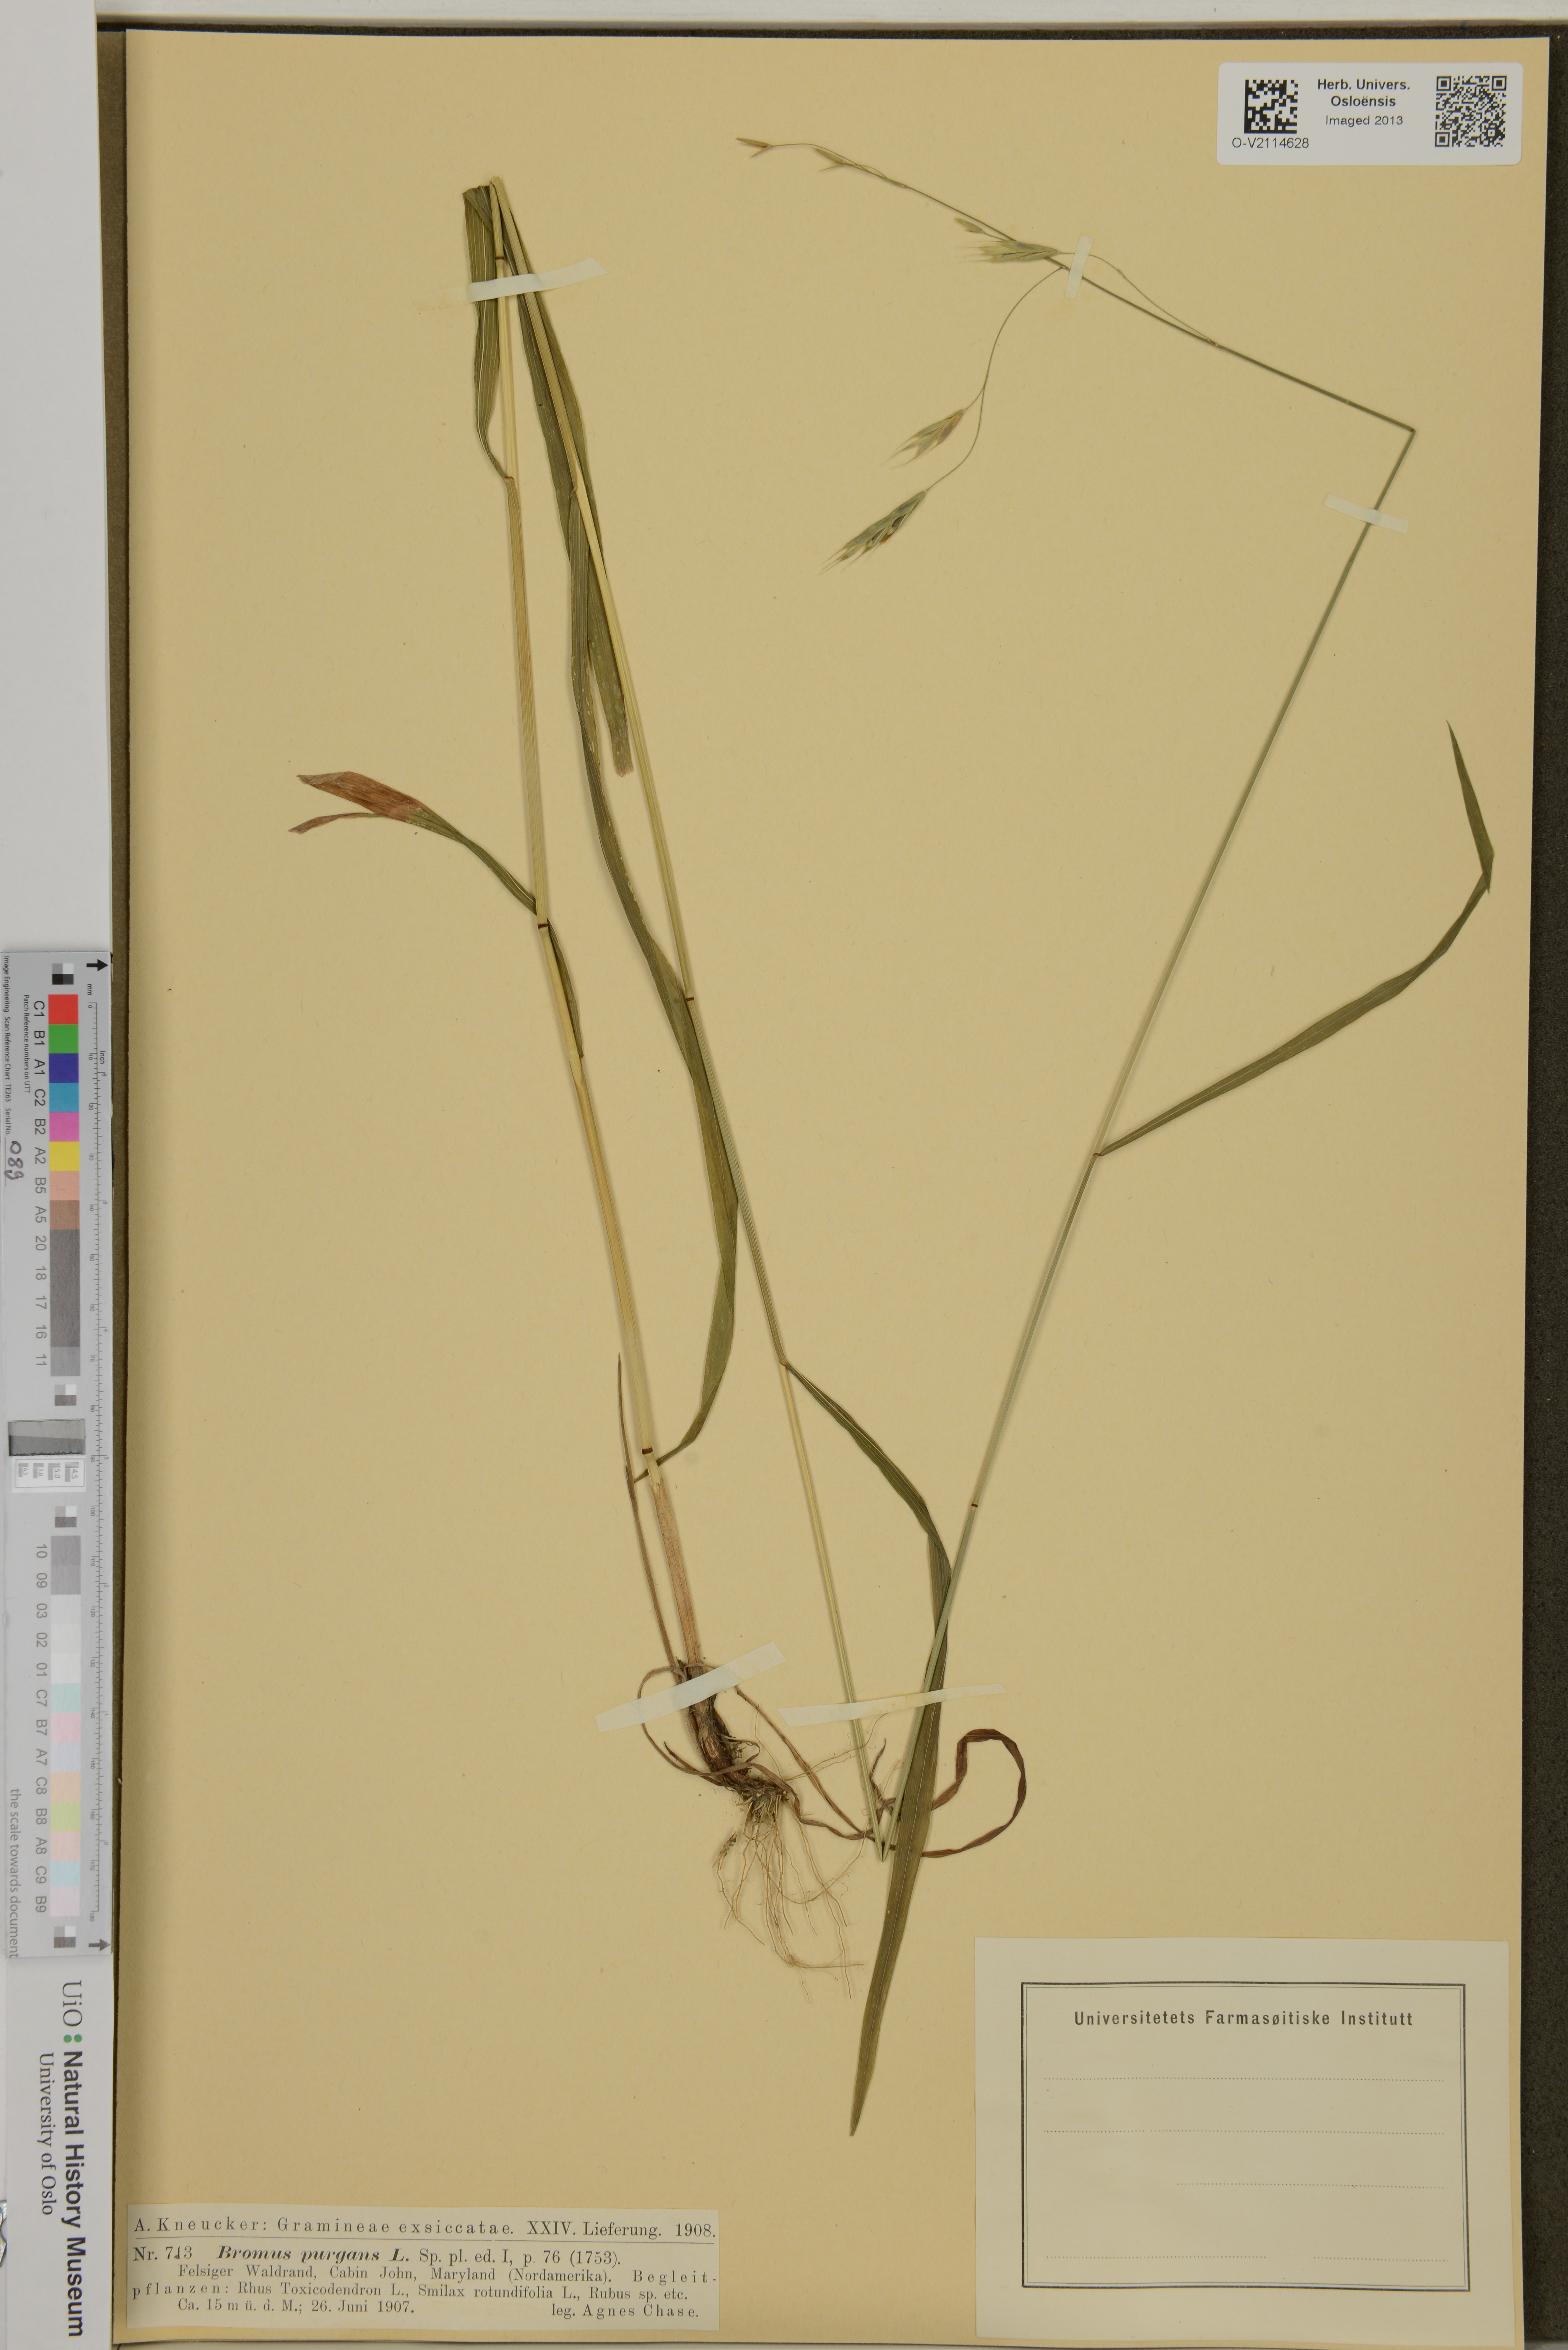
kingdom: Plantae
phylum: Tracheophyta
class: Liliopsida
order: Poales
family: Poaceae
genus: Bromus
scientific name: Bromus pubescens
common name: Hairy wood brome grass
